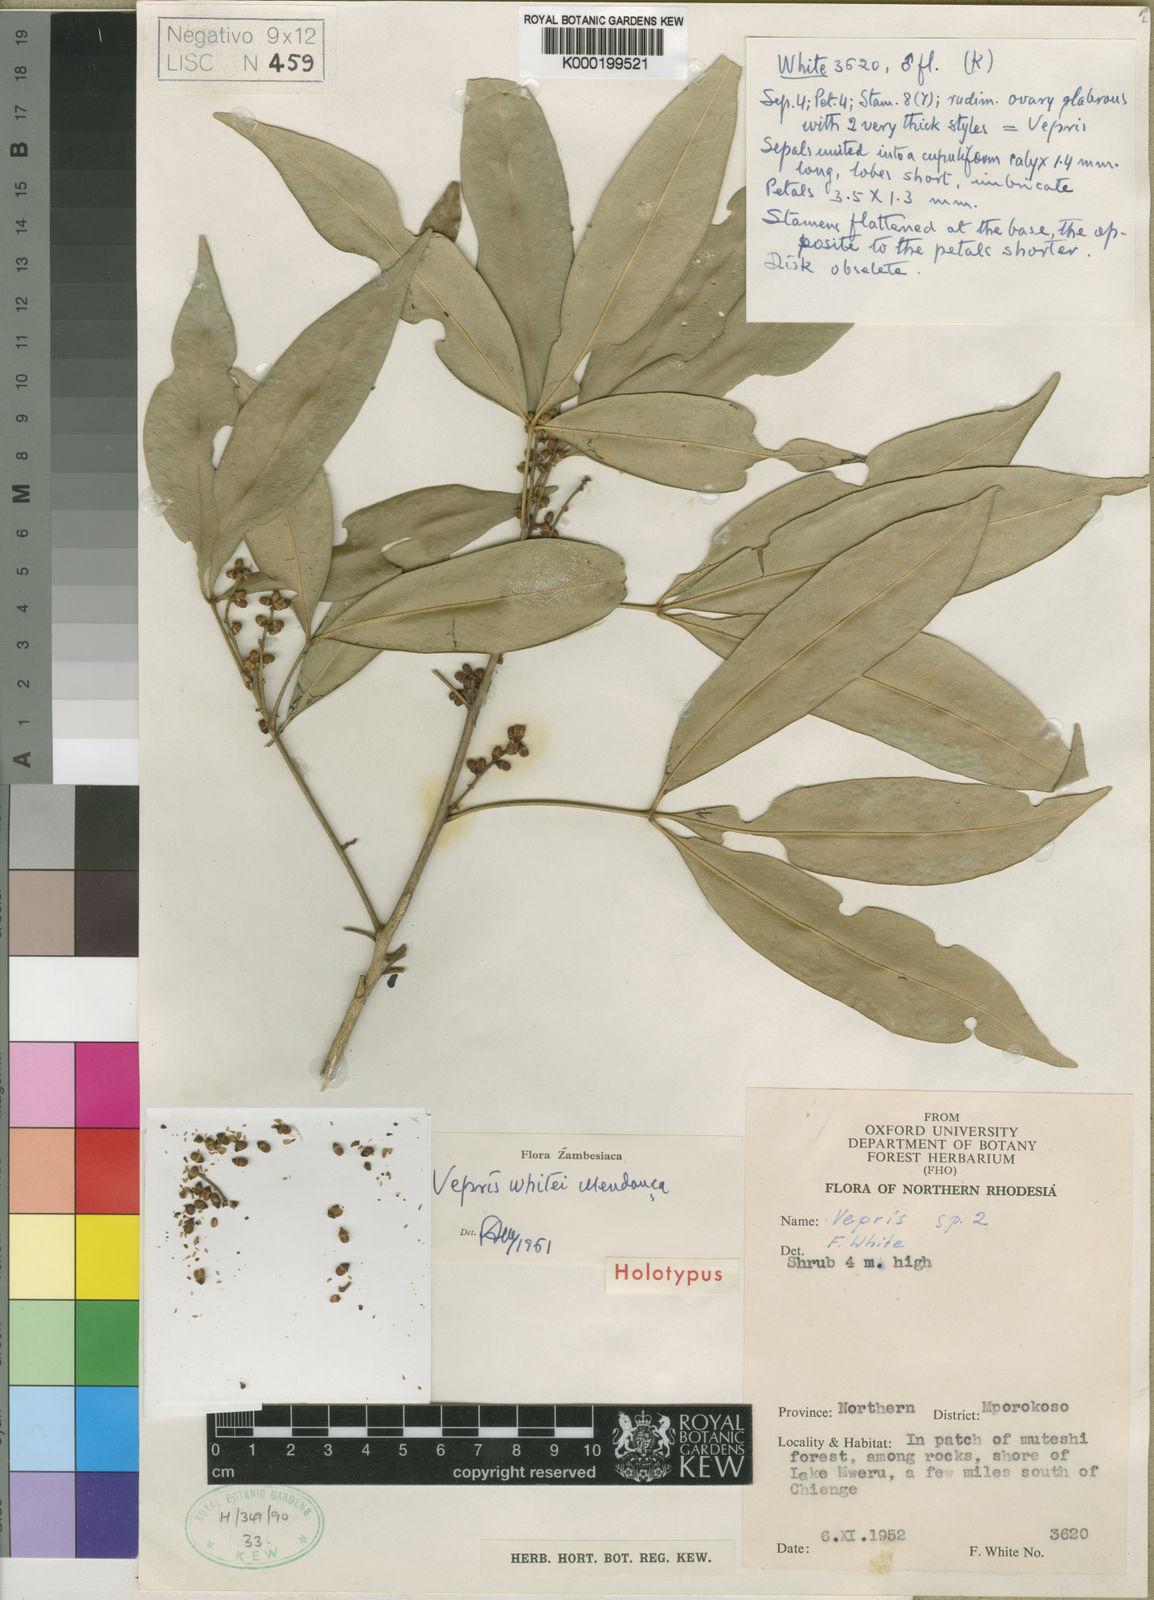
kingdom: Plantae
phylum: Tracheophyta
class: Magnoliopsida
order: Sapindales
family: Rutaceae
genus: Vepris
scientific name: Vepris
